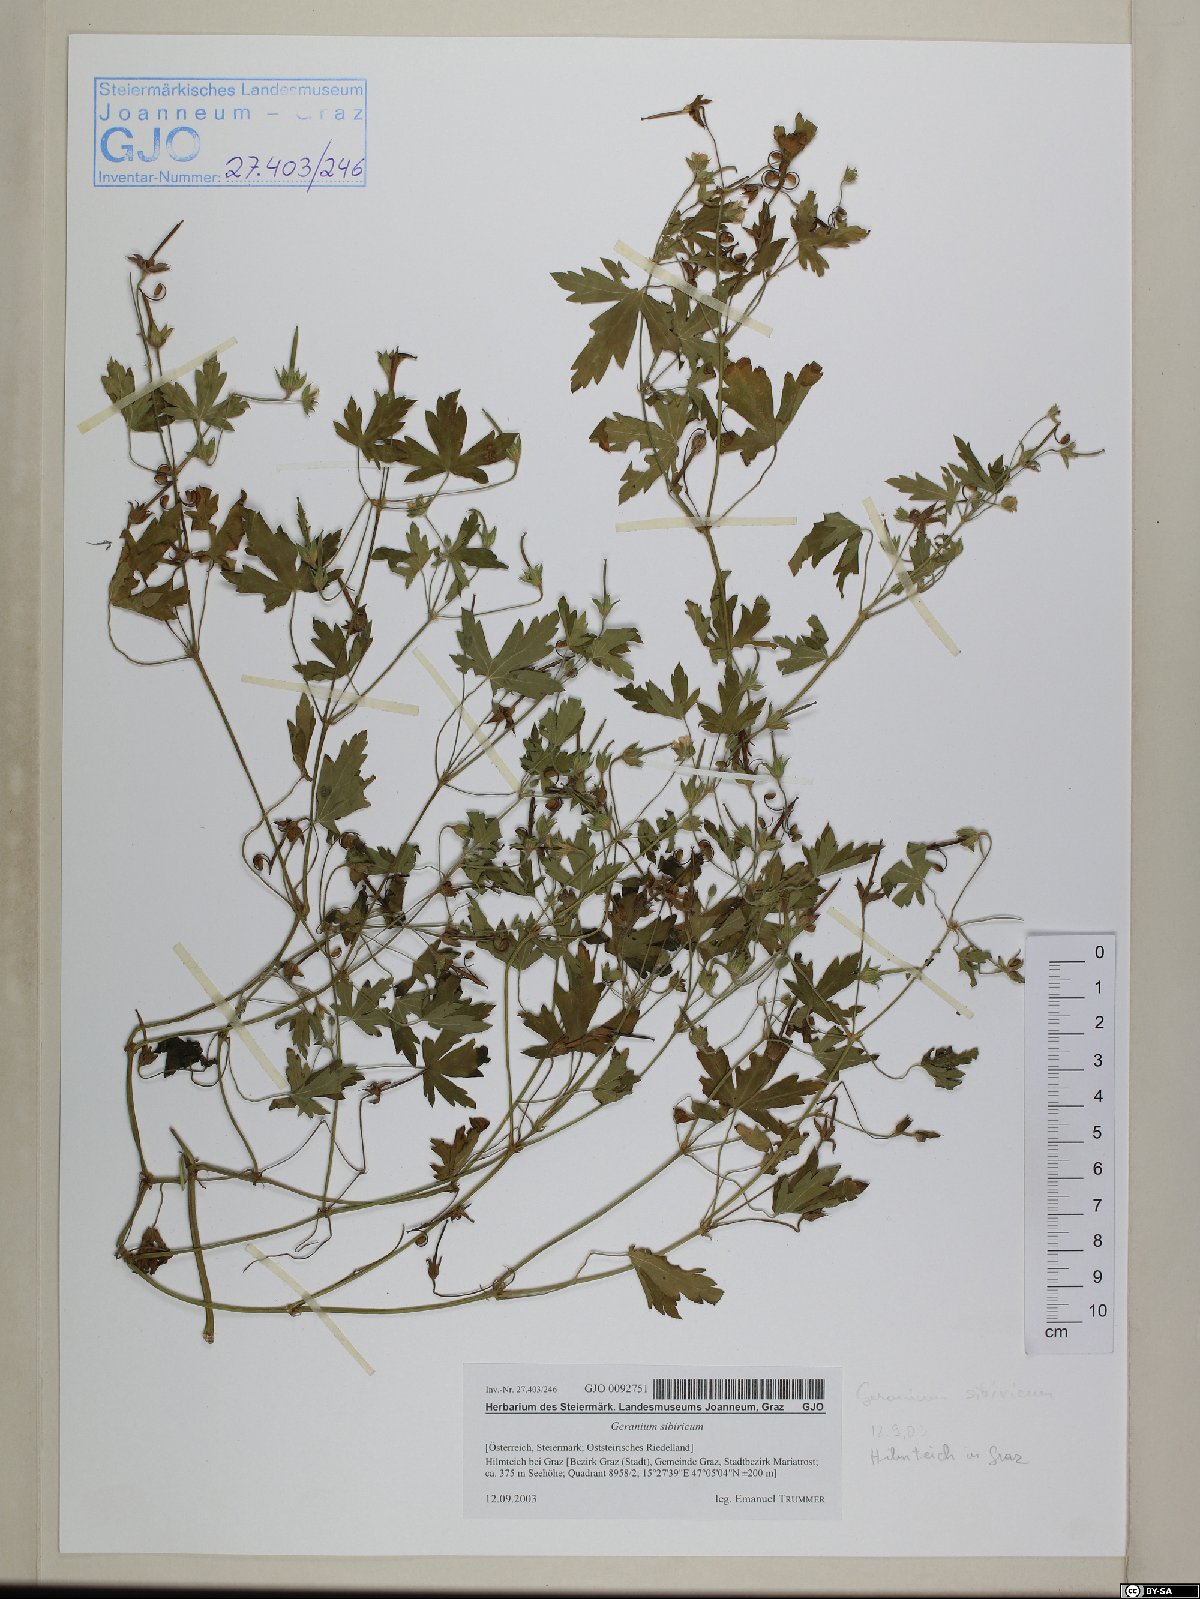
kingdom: Plantae
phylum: Tracheophyta
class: Magnoliopsida
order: Geraniales
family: Geraniaceae
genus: Geranium
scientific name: Geranium sibiricum
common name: Siberian crane's-bill
